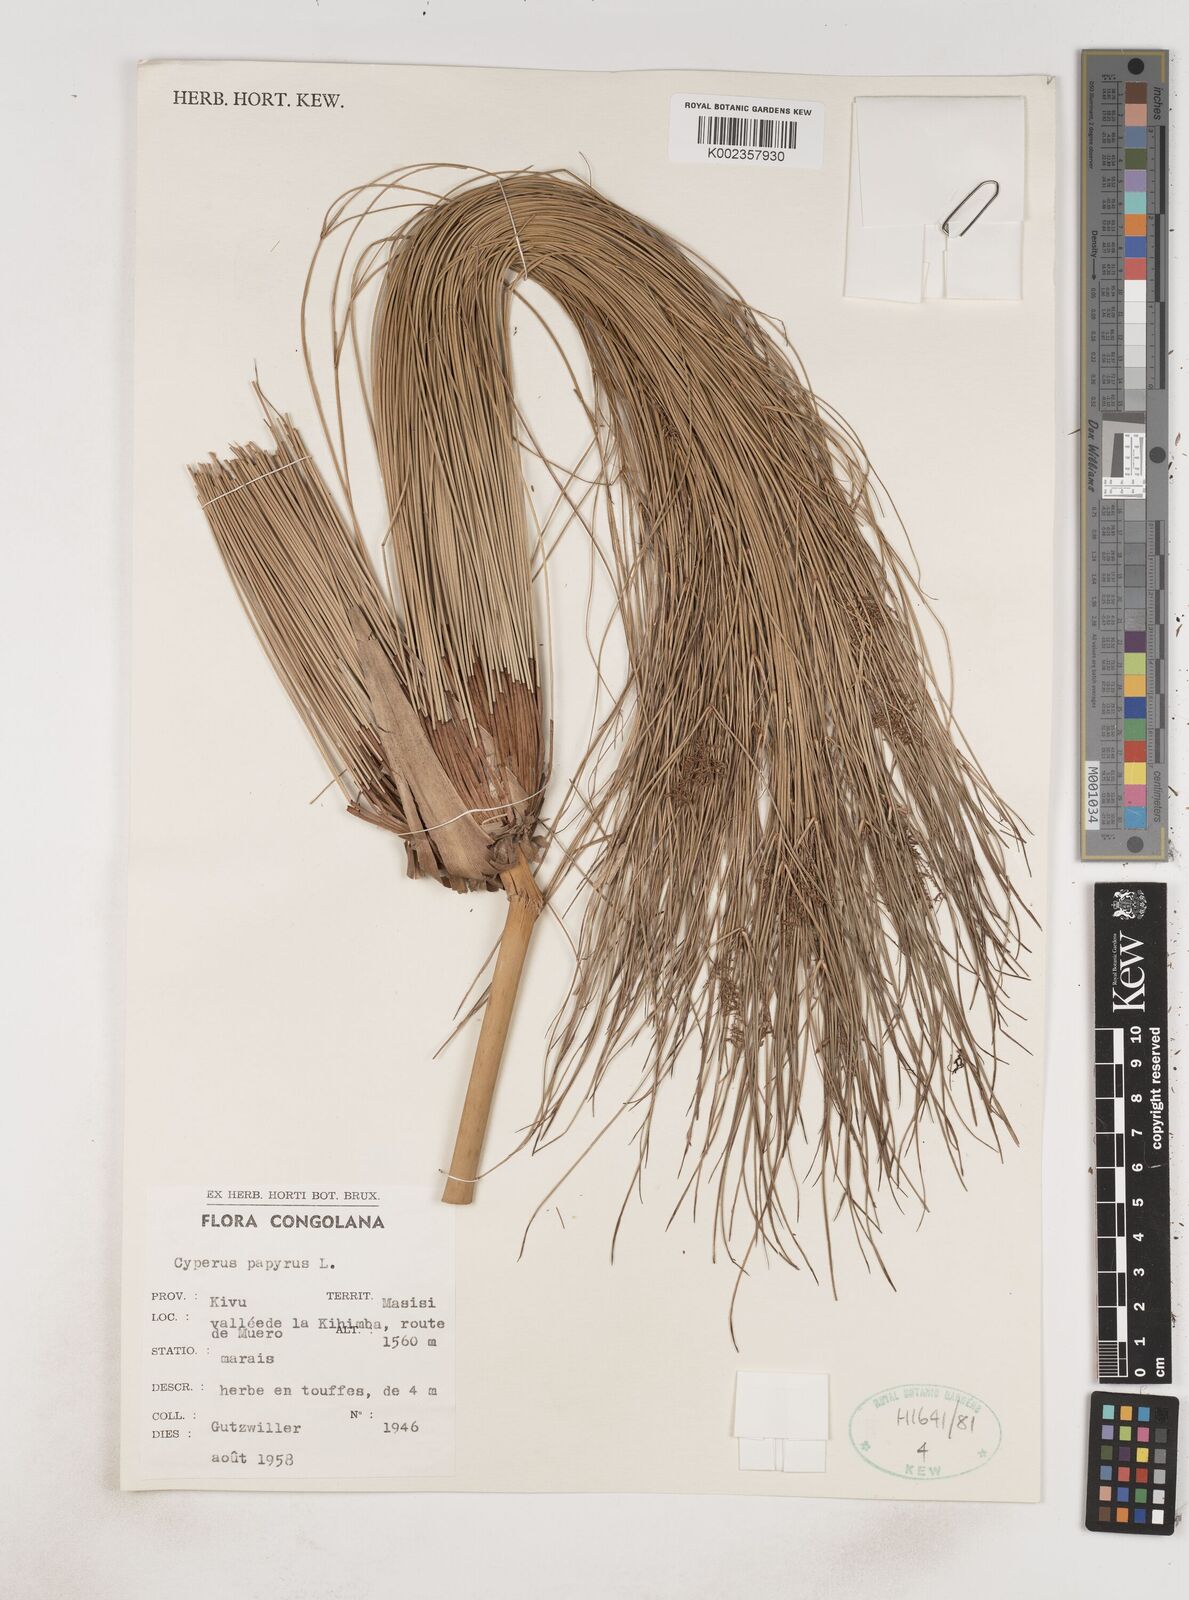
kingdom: Plantae
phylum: Tracheophyta
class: Liliopsida
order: Poales
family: Cyperaceae
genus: Cyperus
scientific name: Cyperus papyrus
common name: Papyrus
